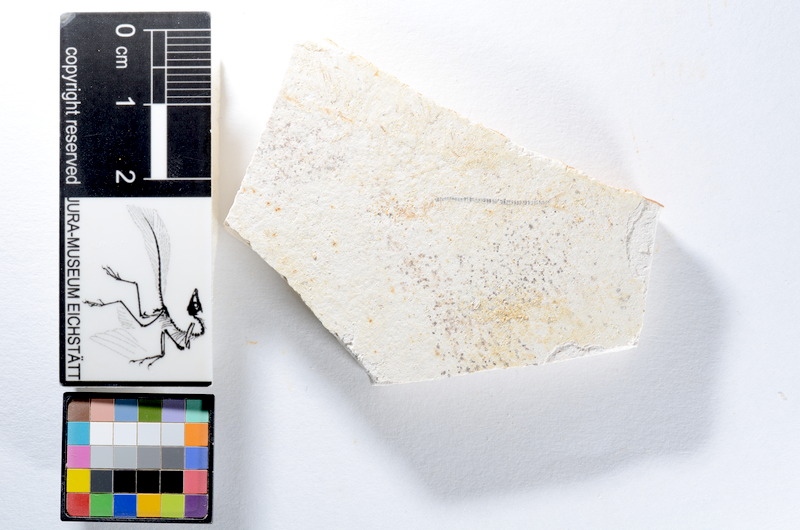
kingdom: Animalia
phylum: Chordata
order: Salmoniformes
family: Orthogonikleithridae
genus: Orthogonikleithrus
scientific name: Orthogonikleithrus hoelli
